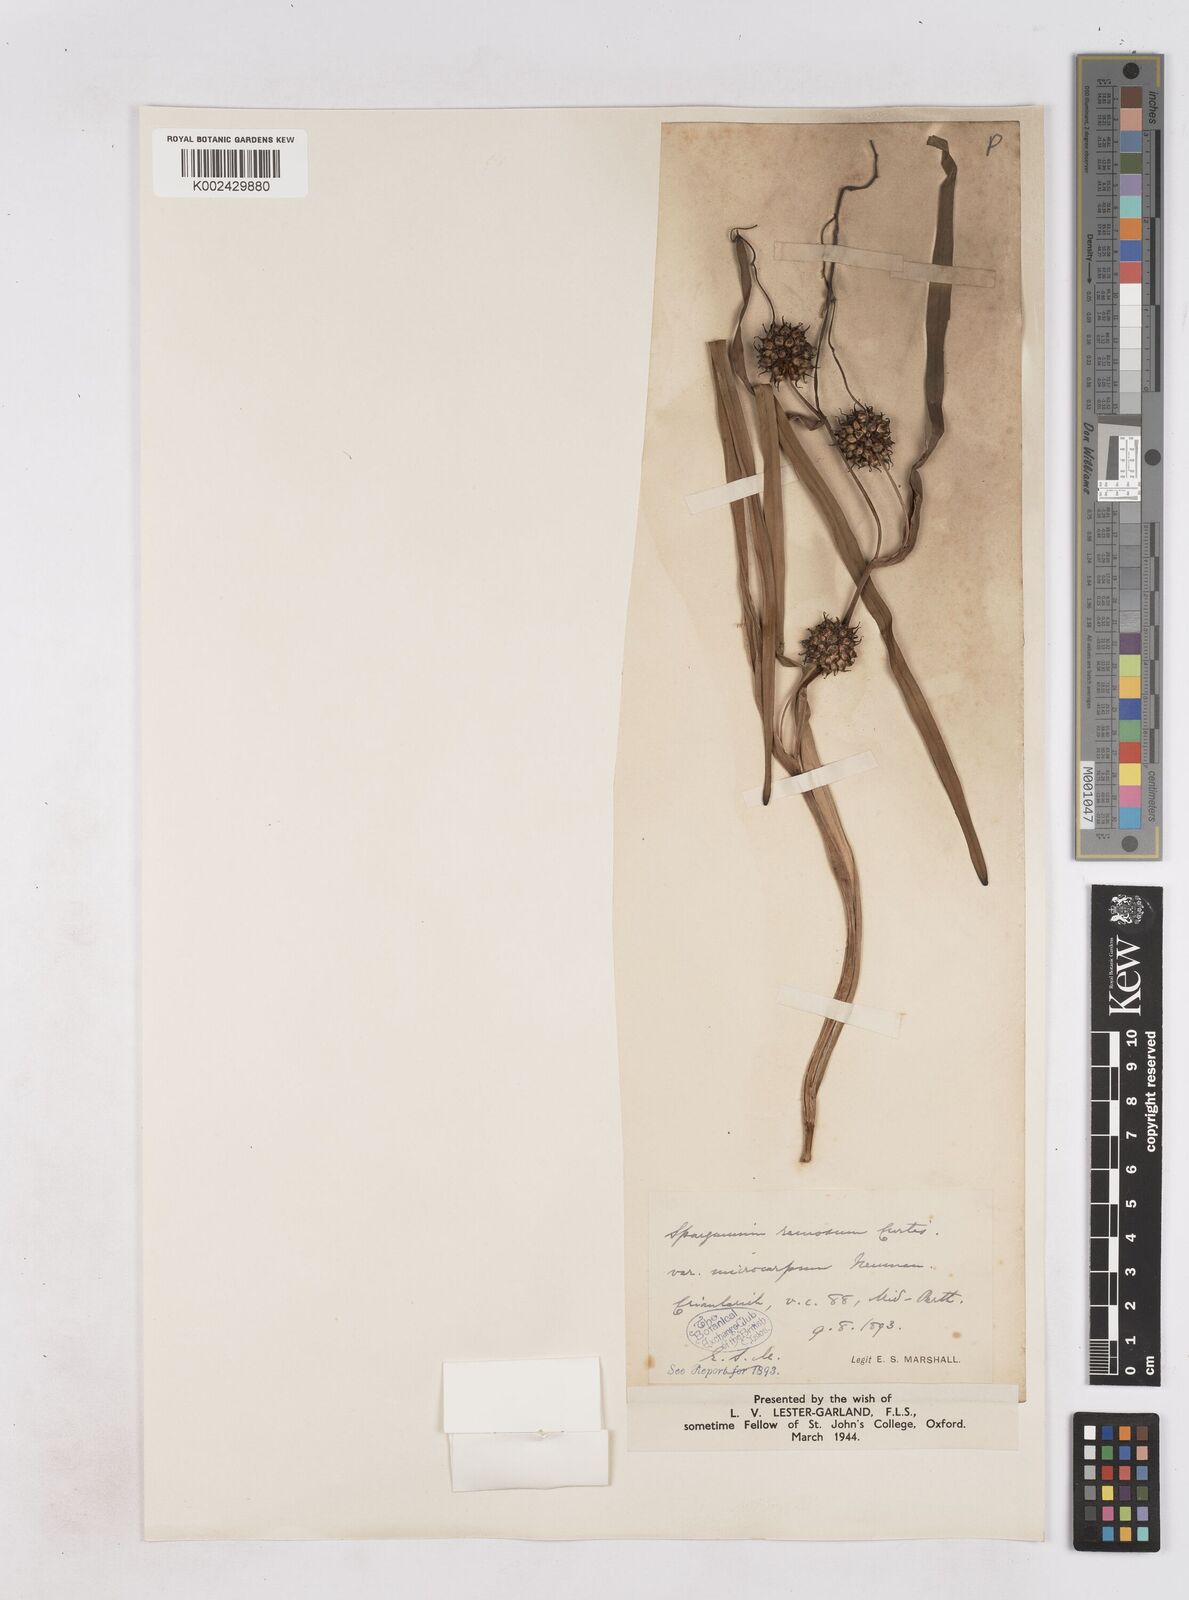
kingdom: Plantae
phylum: Tracheophyta
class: Liliopsida
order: Poales
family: Typhaceae
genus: Sparganium
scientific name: Sparganium erectum
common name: Branched bur-reed
